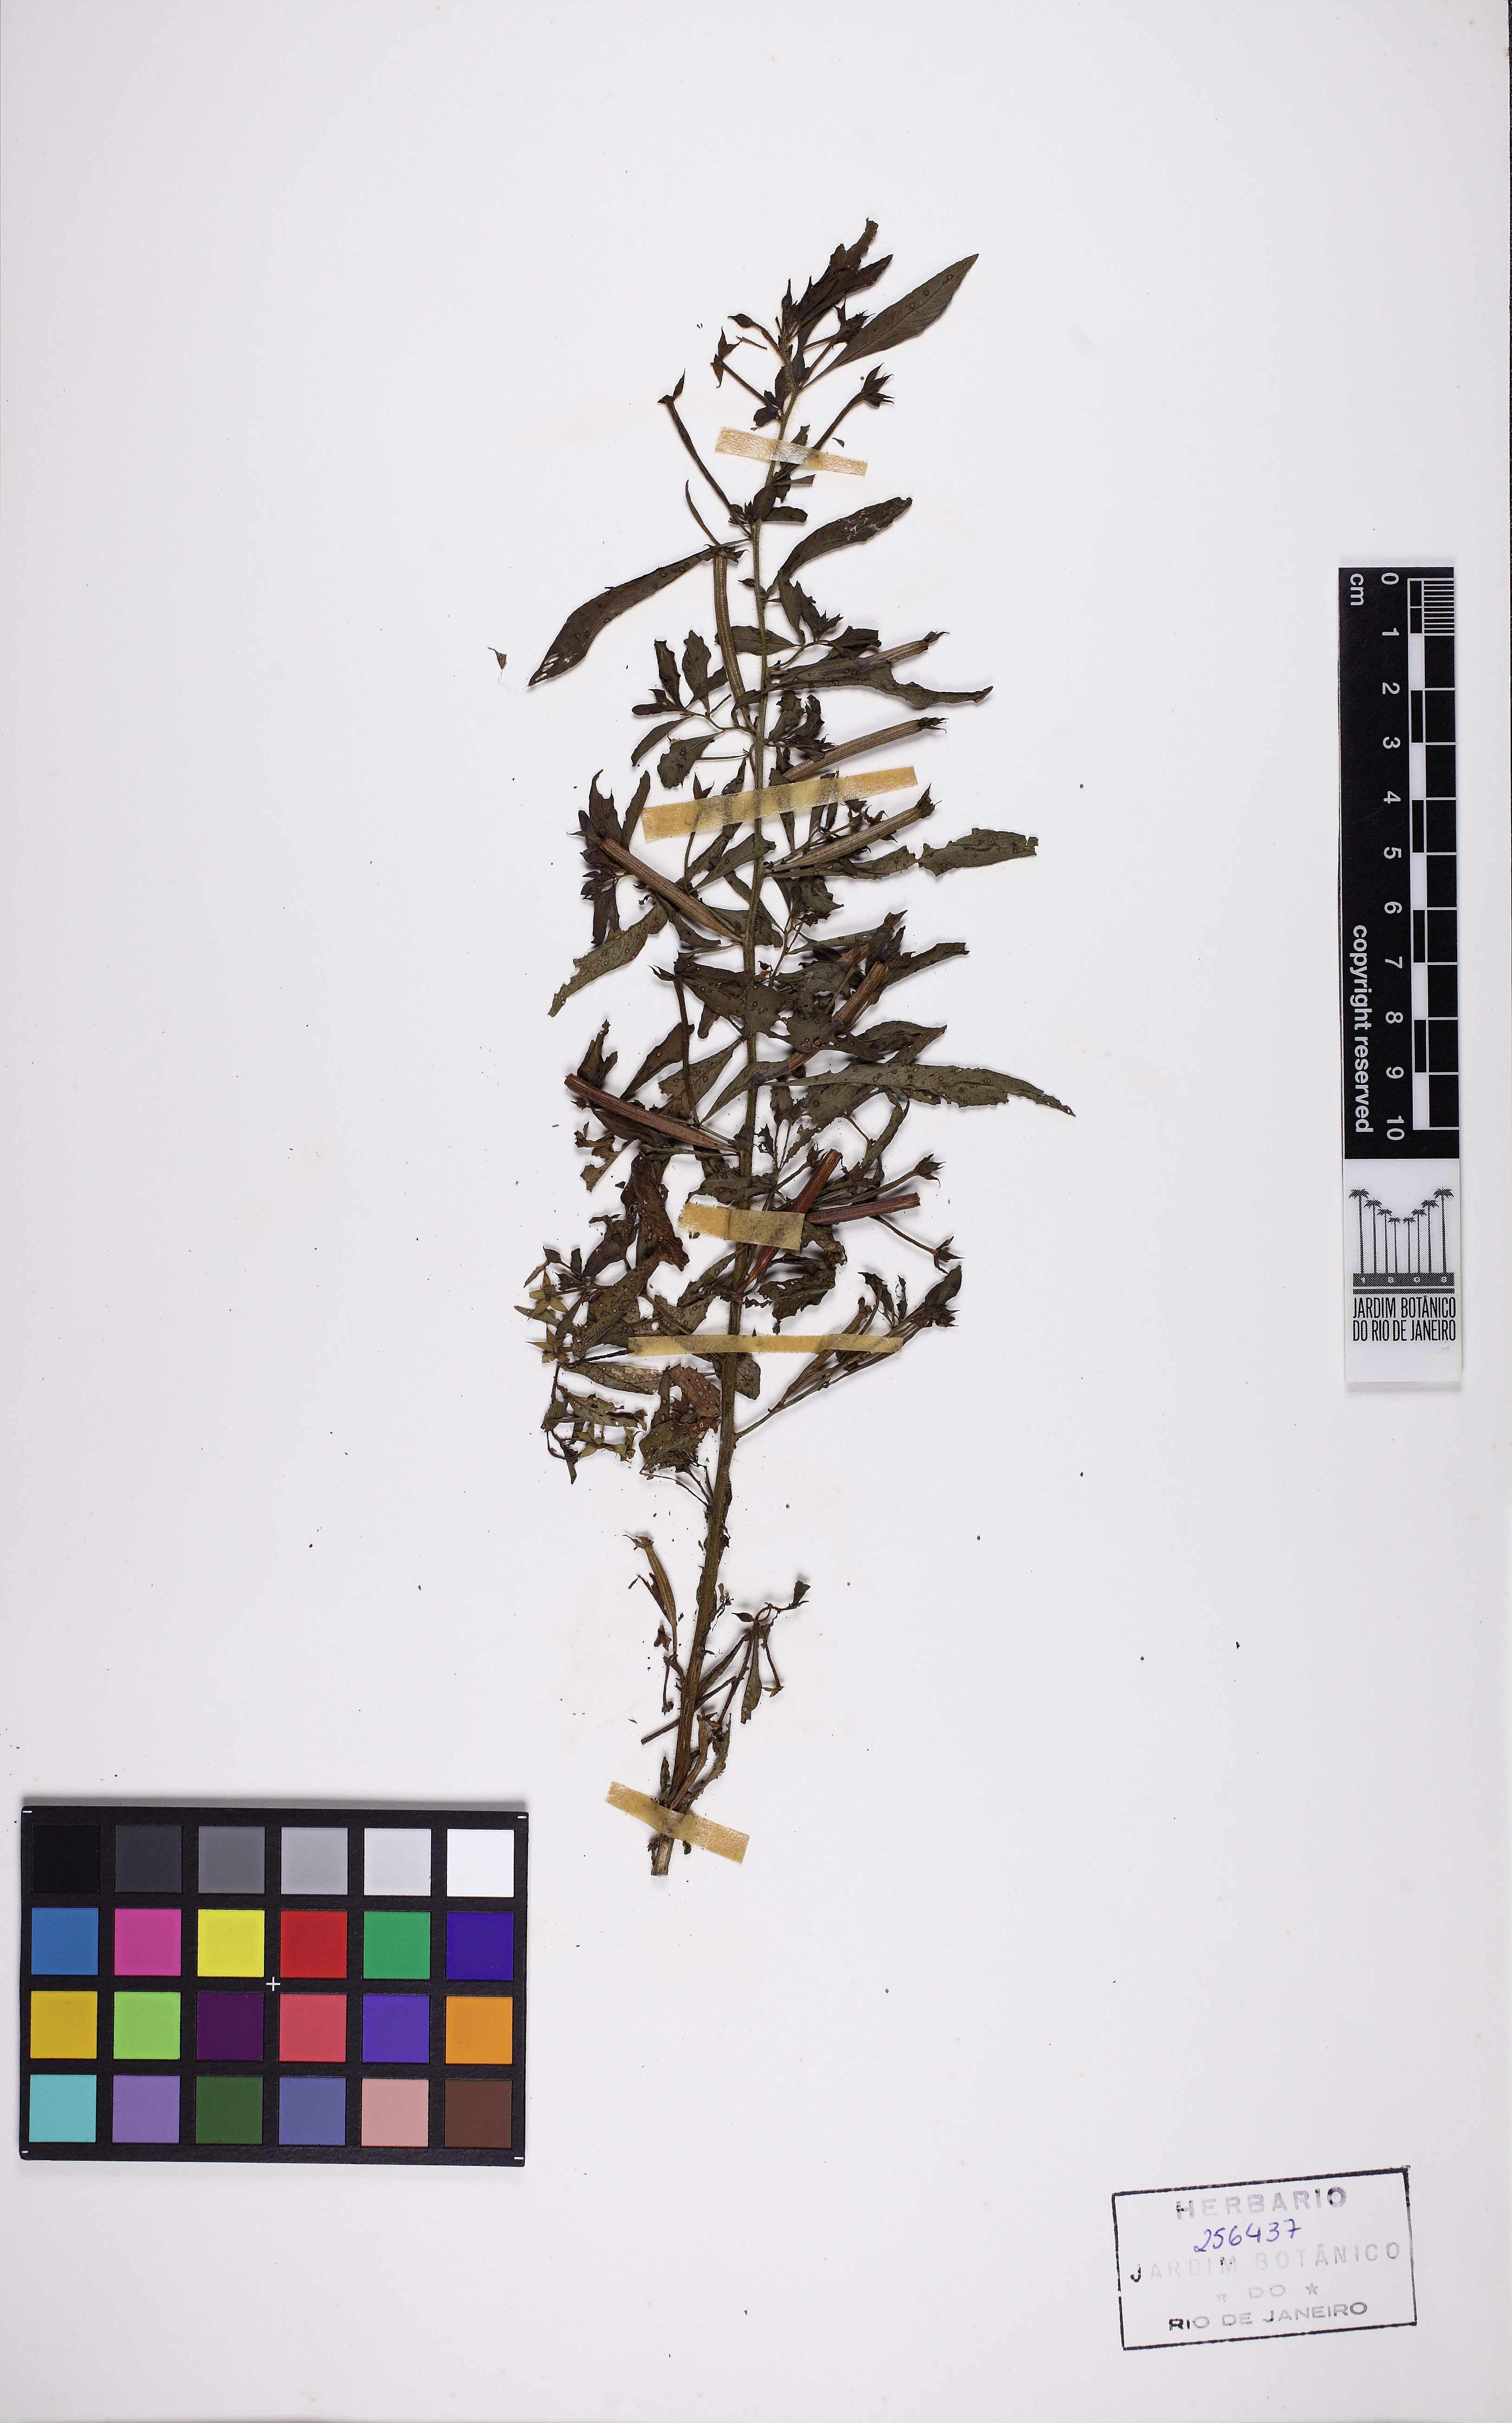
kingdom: Plantae
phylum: Tracheophyta
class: Magnoliopsida
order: Myrtales
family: Onagraceae
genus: Ludwigia
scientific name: Ludwigia
